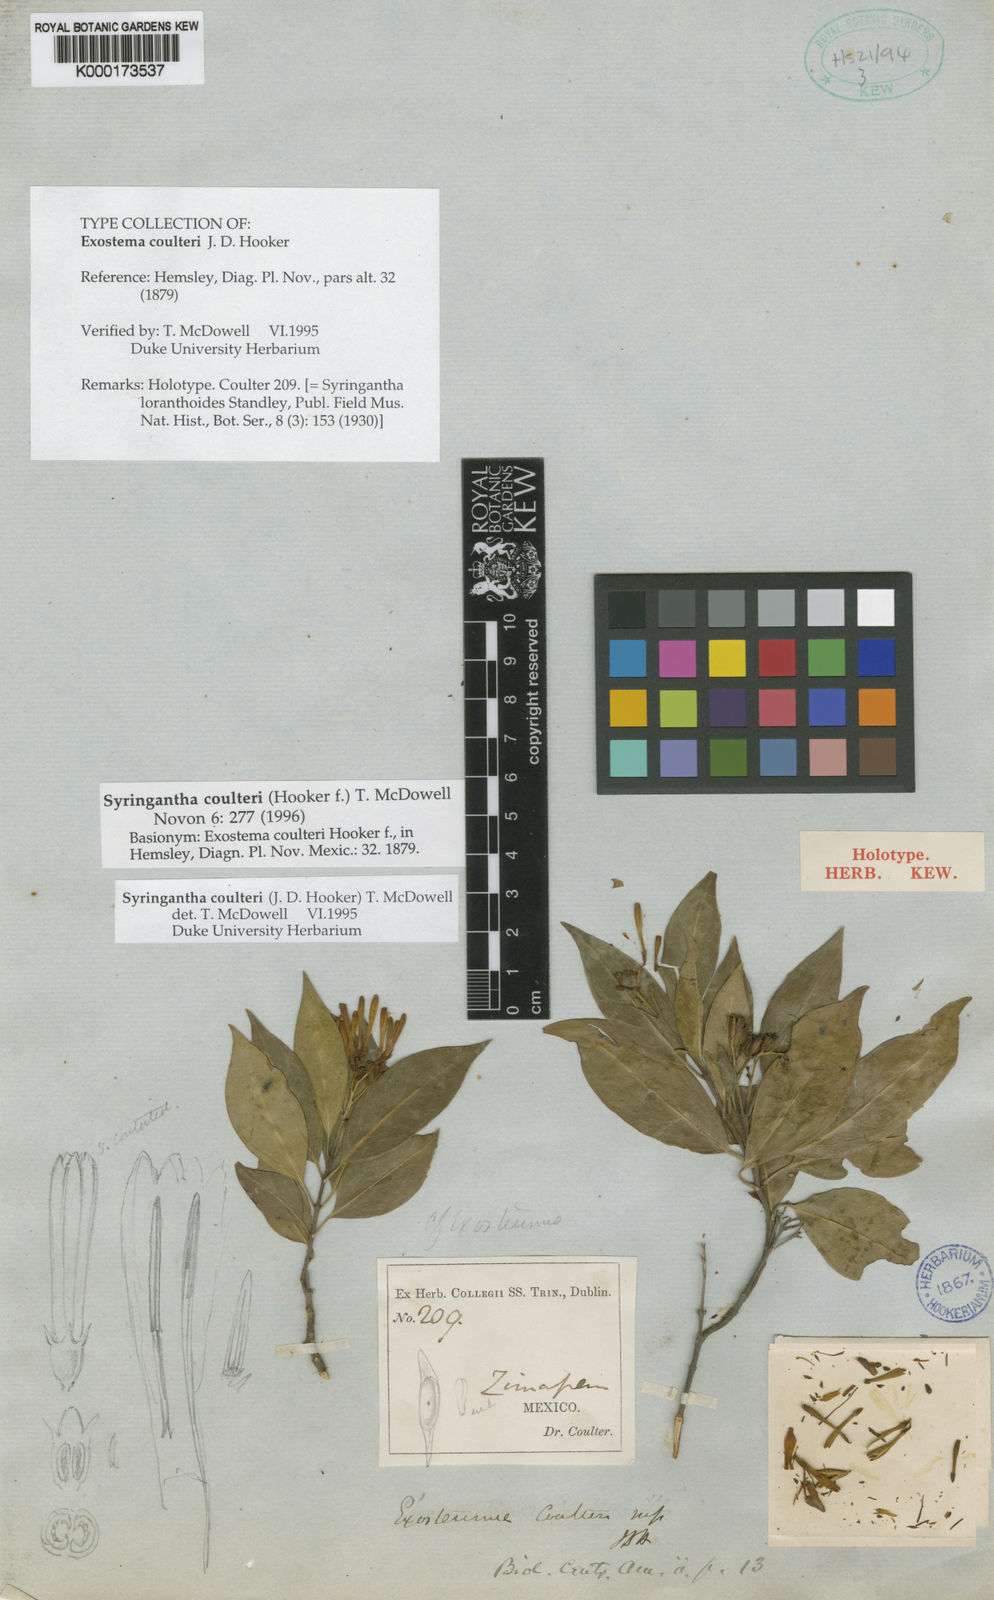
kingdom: Plantae
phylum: Tracheophyta
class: Magnoliopsida
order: Gentianales
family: Rubiaceae
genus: Syringantha
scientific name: Syringantha coulteri
